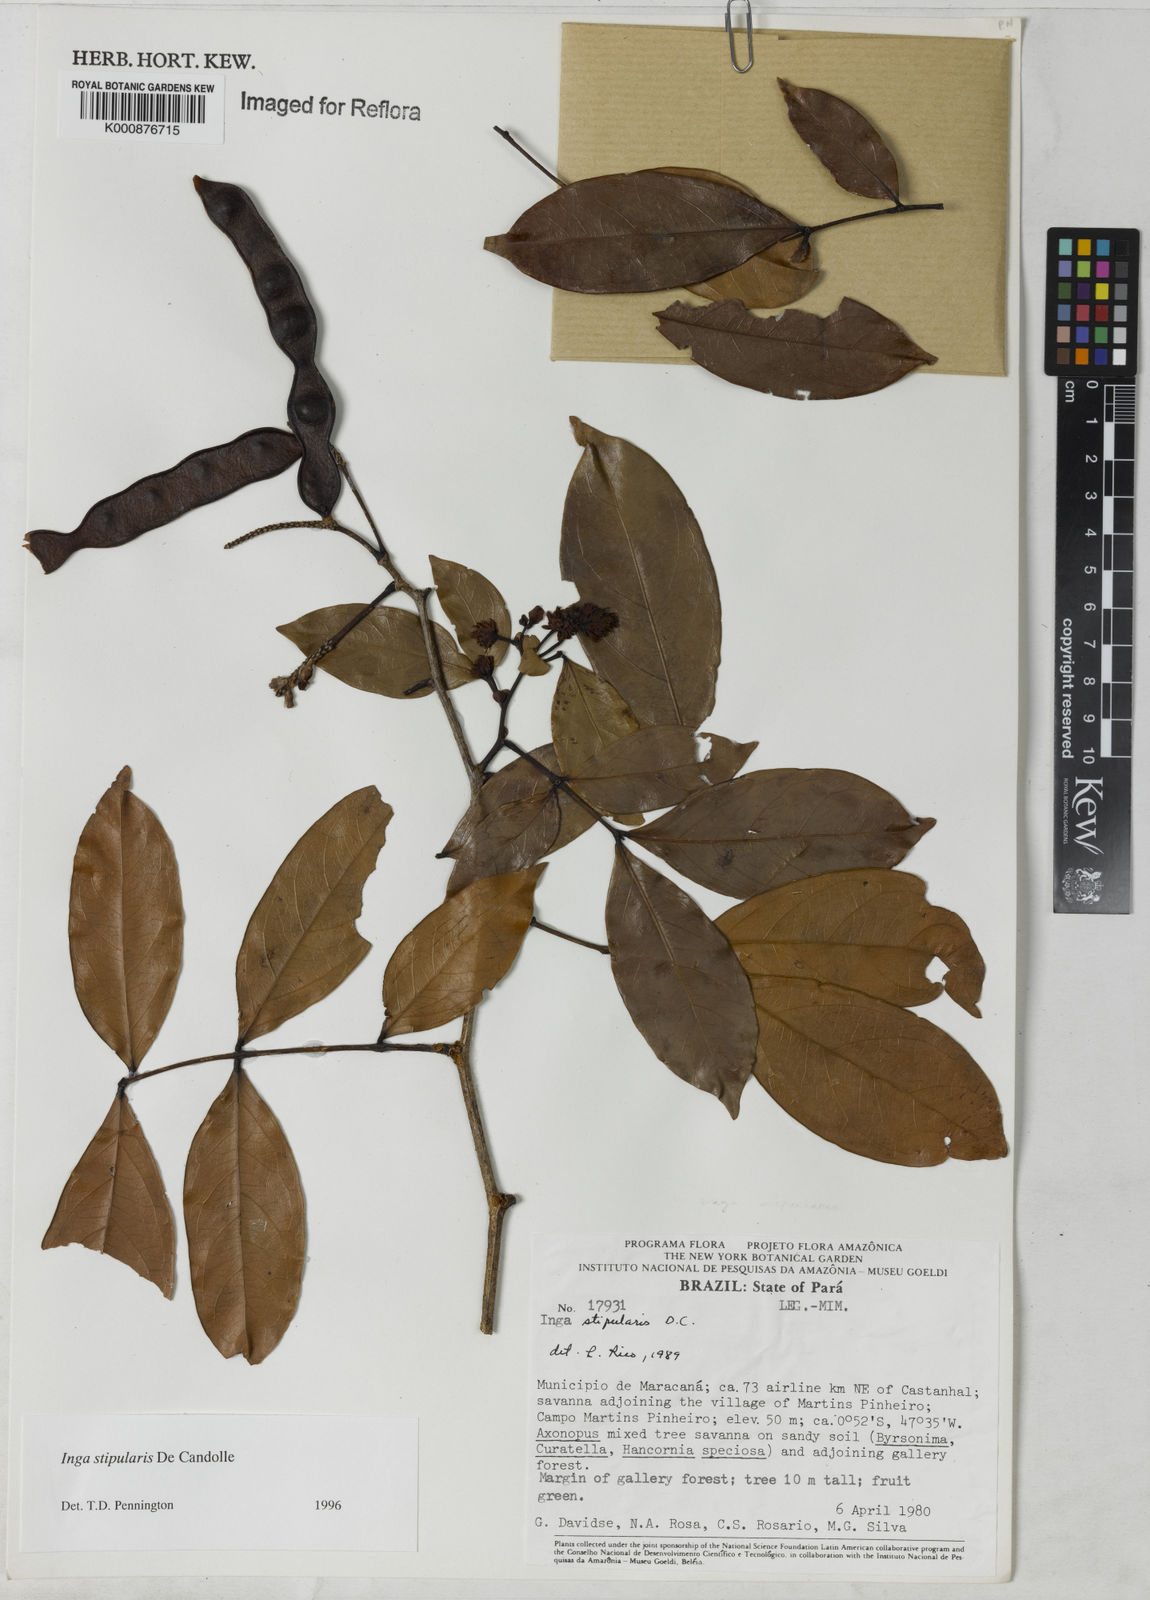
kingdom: Plantae
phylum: Tracheophyta
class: Magnoliopsida
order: Fabales
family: Fabaceae
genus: Inga
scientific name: Inga stipularis
